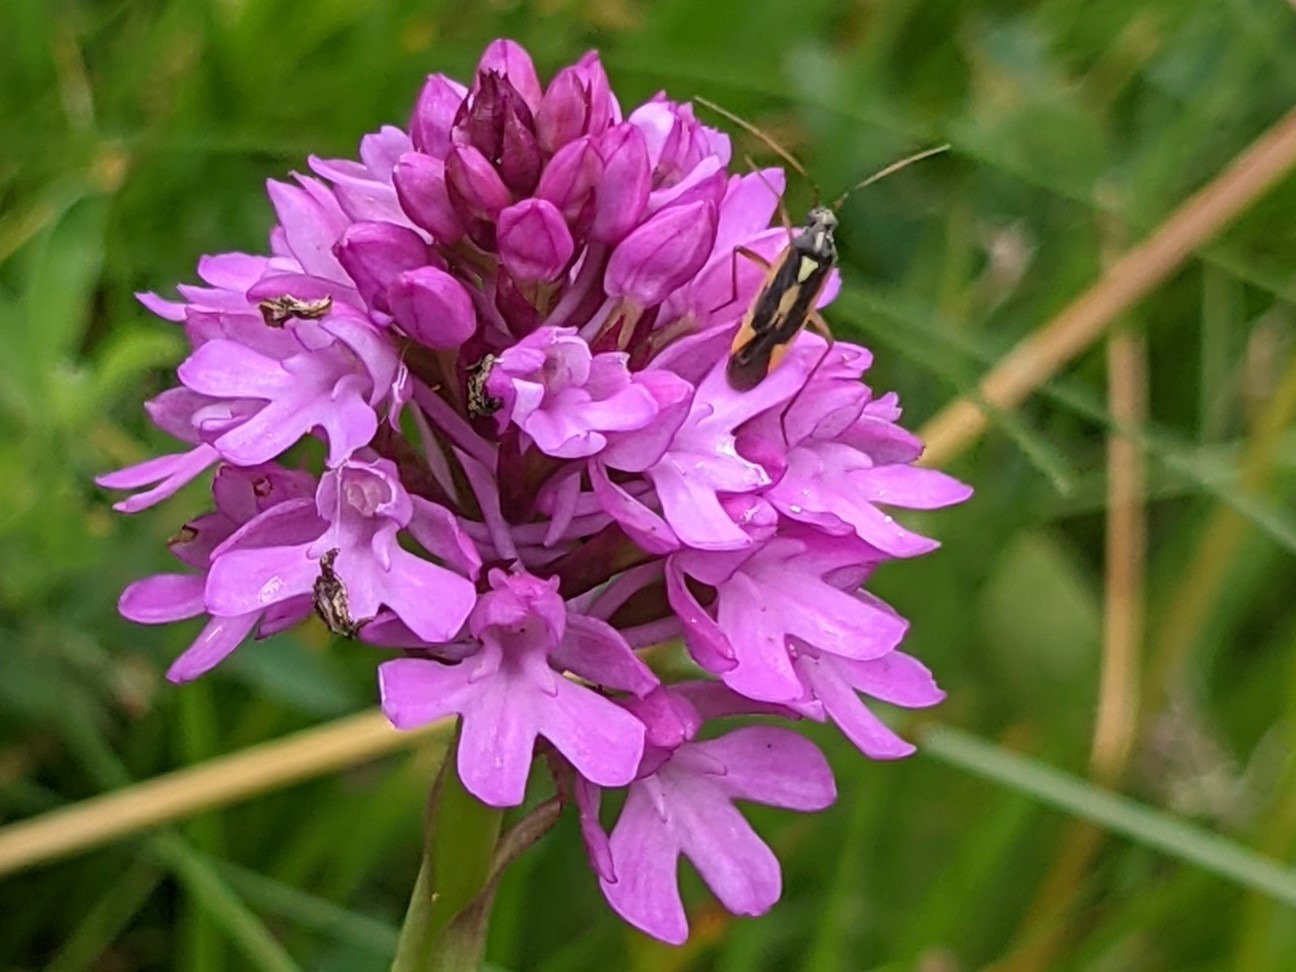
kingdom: Plantae
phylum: Tracheophyta
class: Liliopsida
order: Asparagales
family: Orchidaceae
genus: Anacamptis
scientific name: Anacamptis pyramidalis
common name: Horndrager
